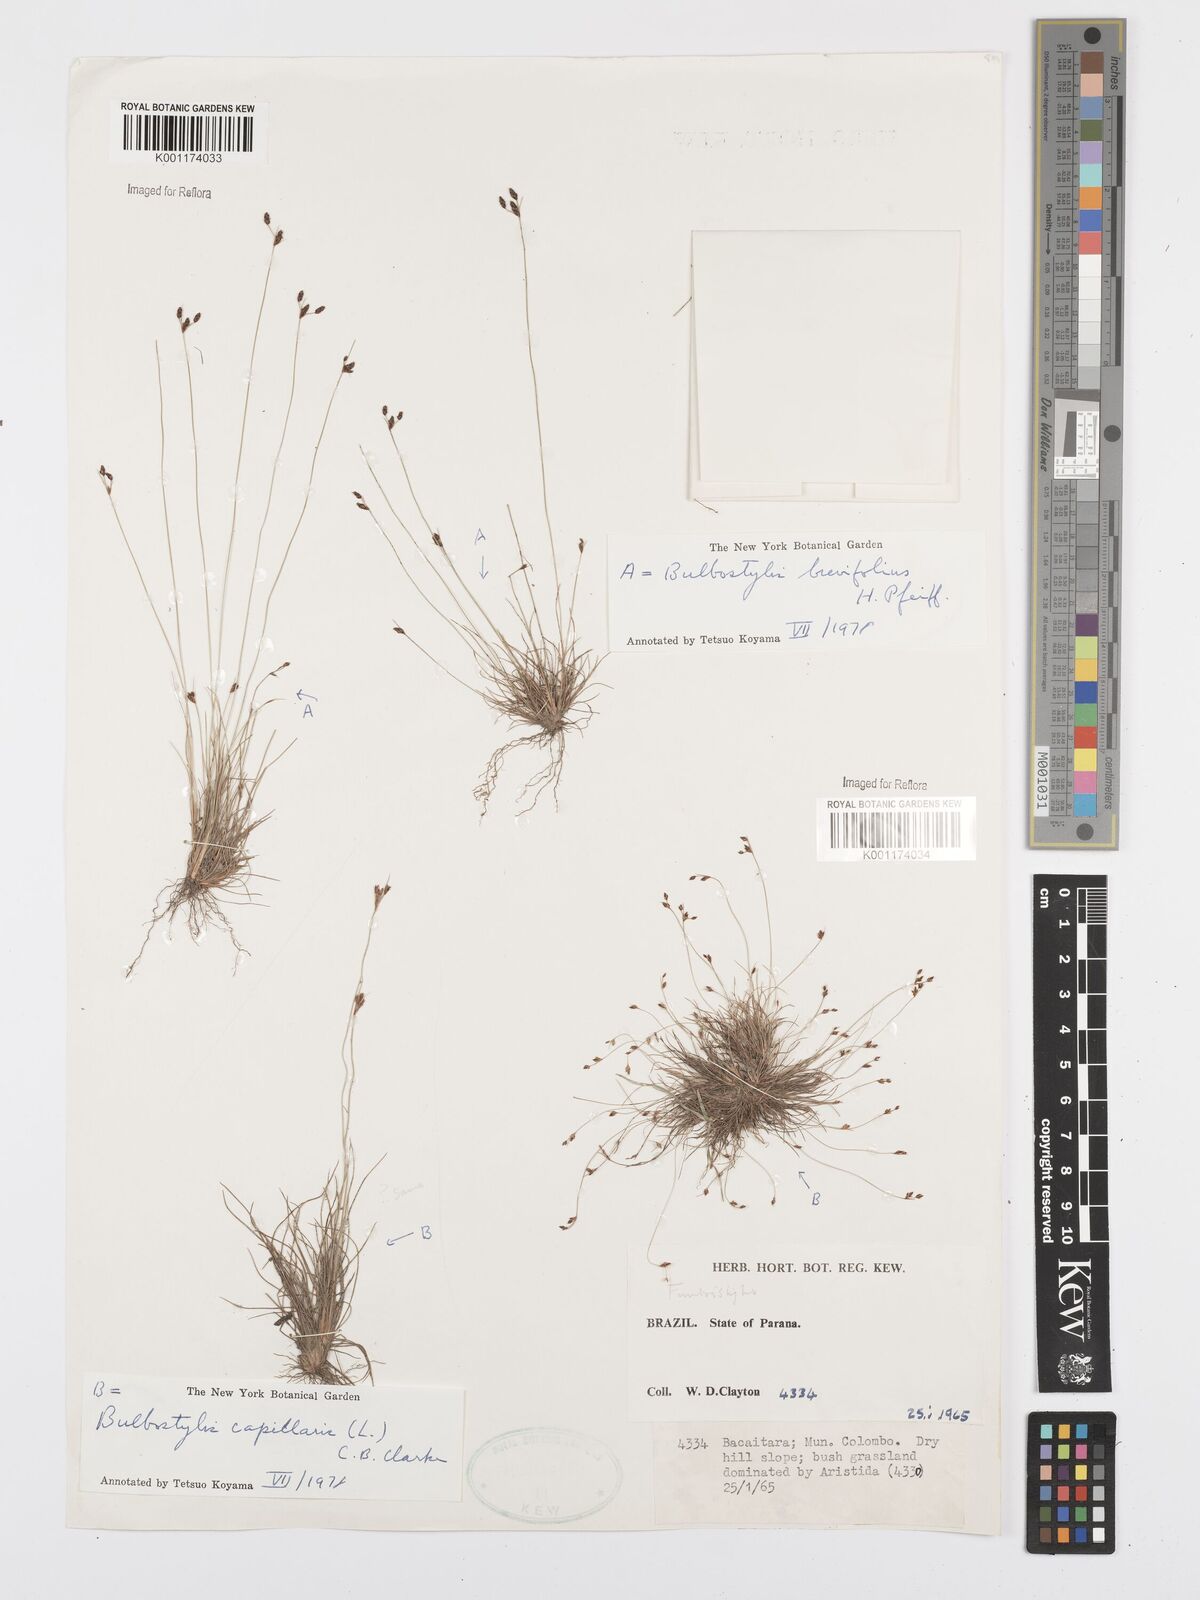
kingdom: Plantae
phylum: Tracheophyta
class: Liliopsida
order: Poales
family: Cyperaceae
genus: Bulbostylis
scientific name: Bulbostylis brevifolia
